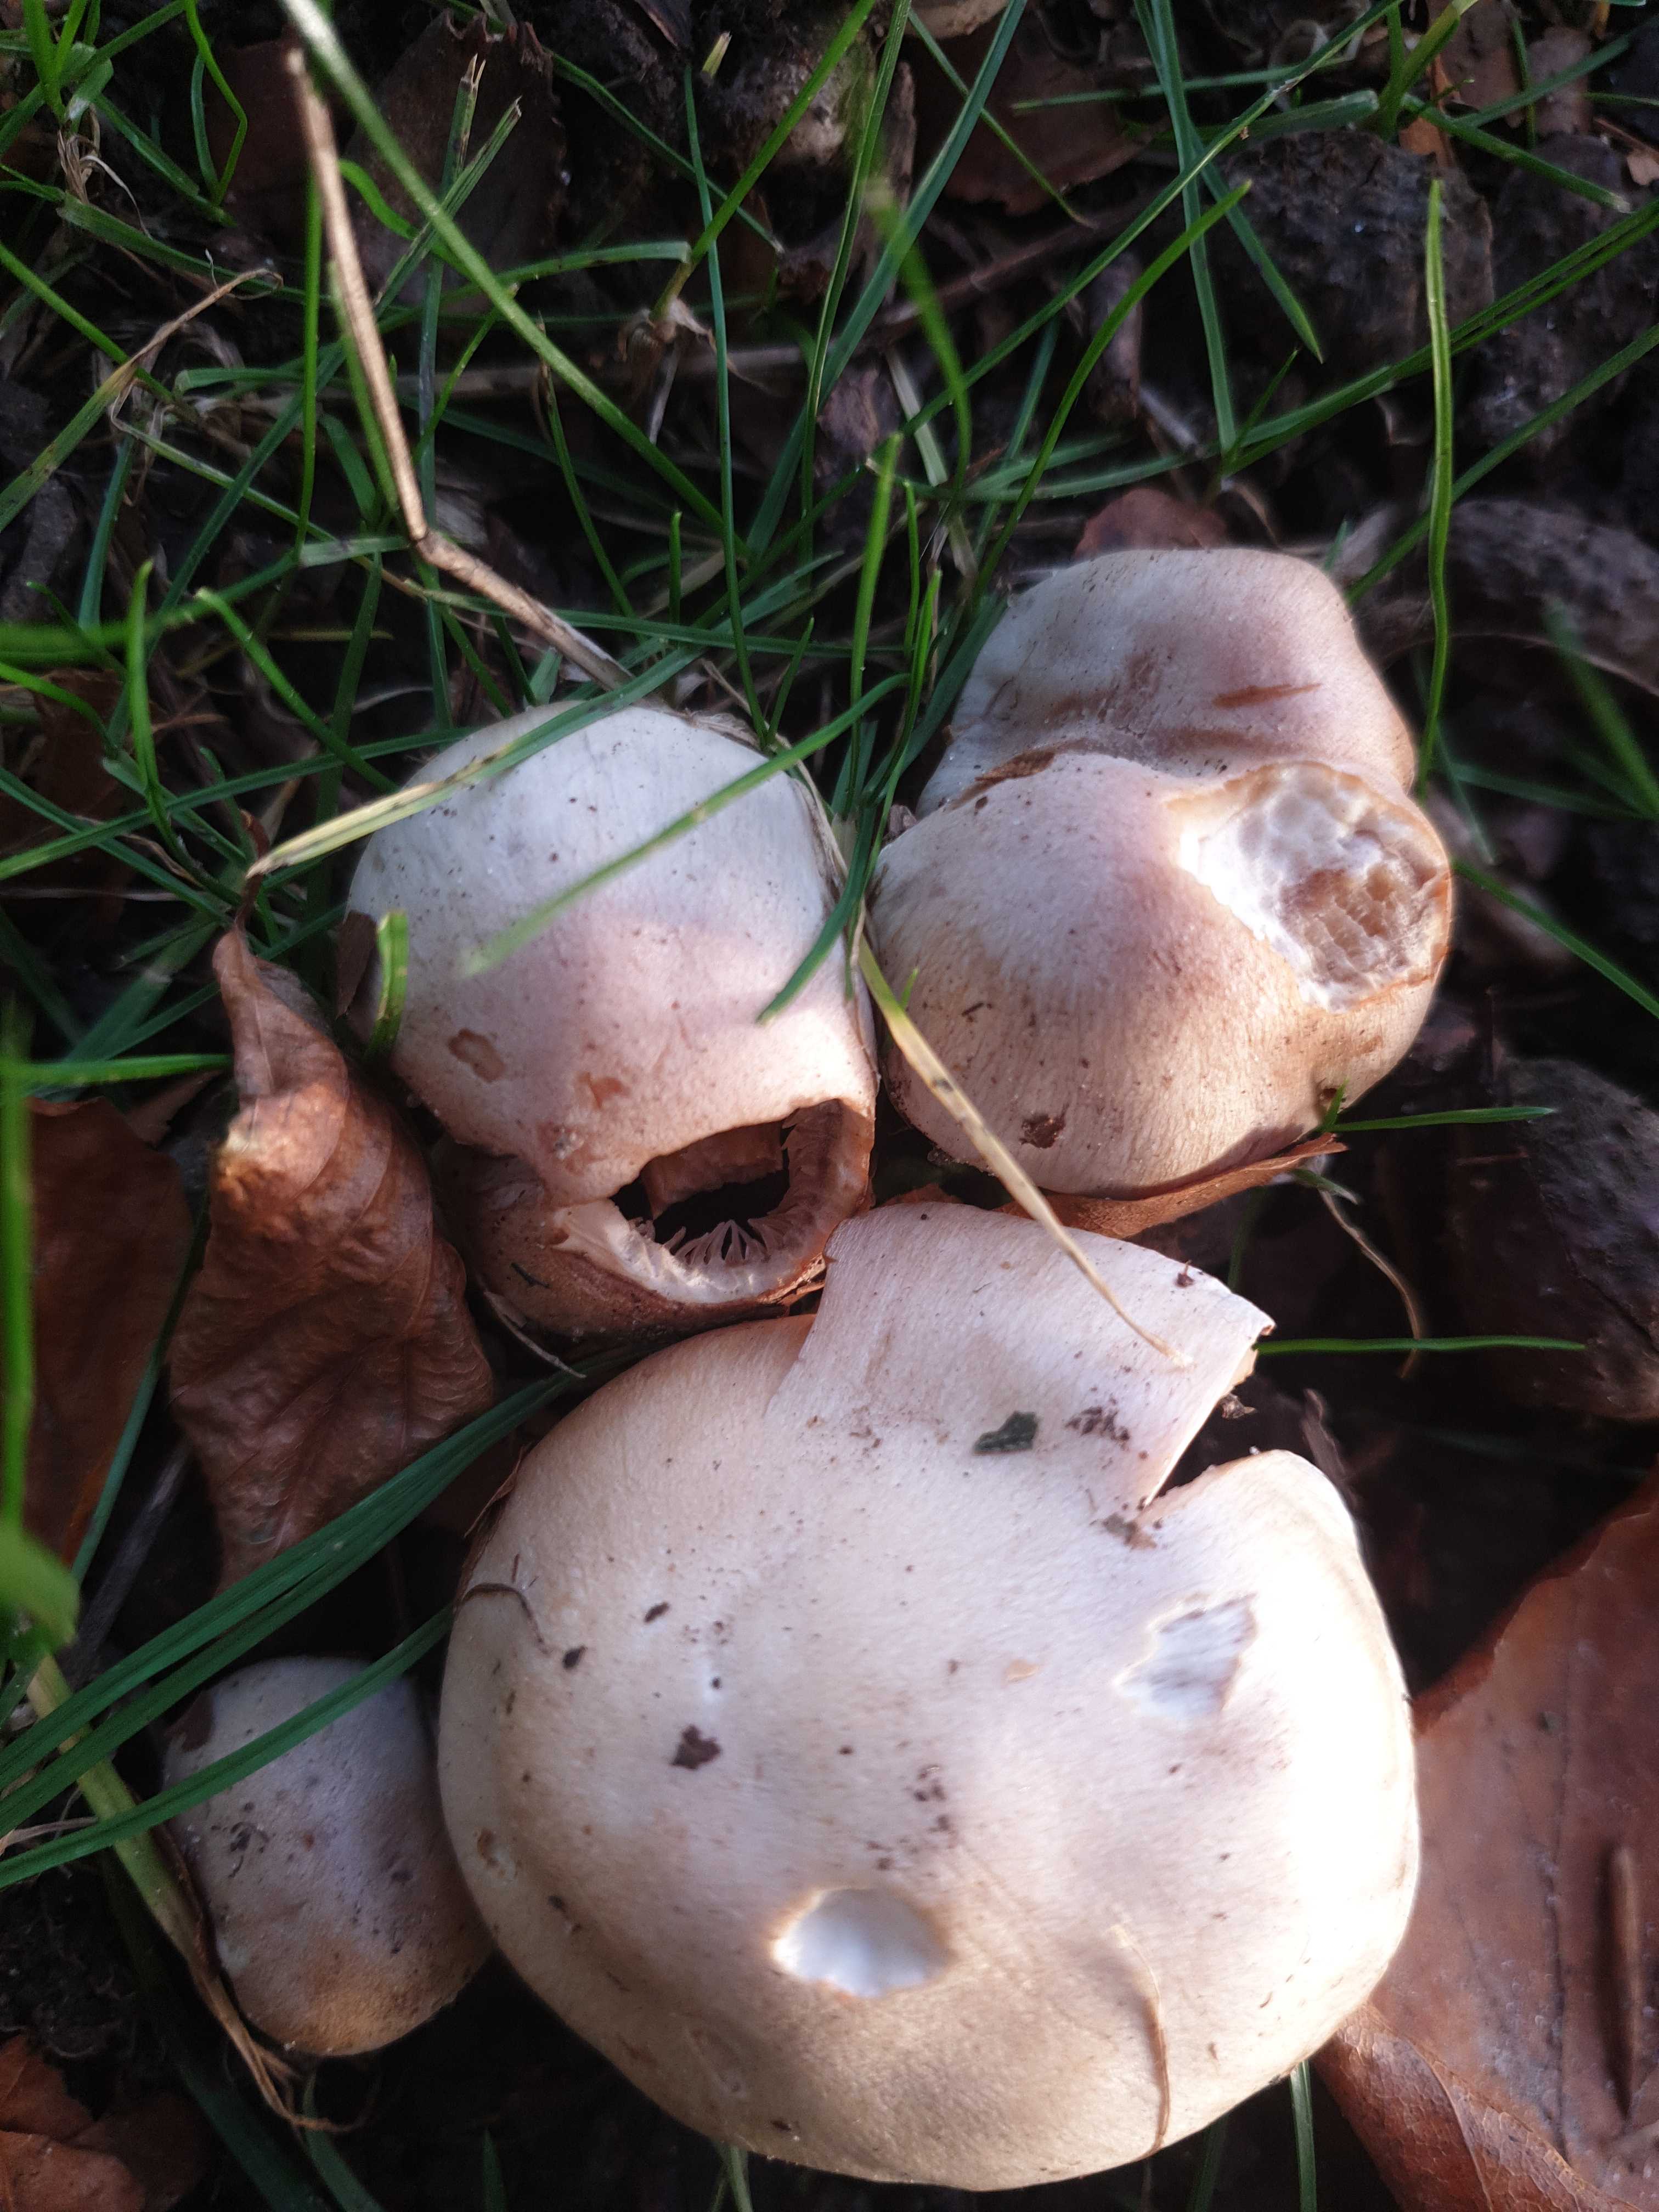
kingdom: Fungi
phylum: Basidiomycota
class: Agaricomycetes
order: Agaricales
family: Hymenogastraceae
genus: Hebeloma
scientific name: Hebeloma
